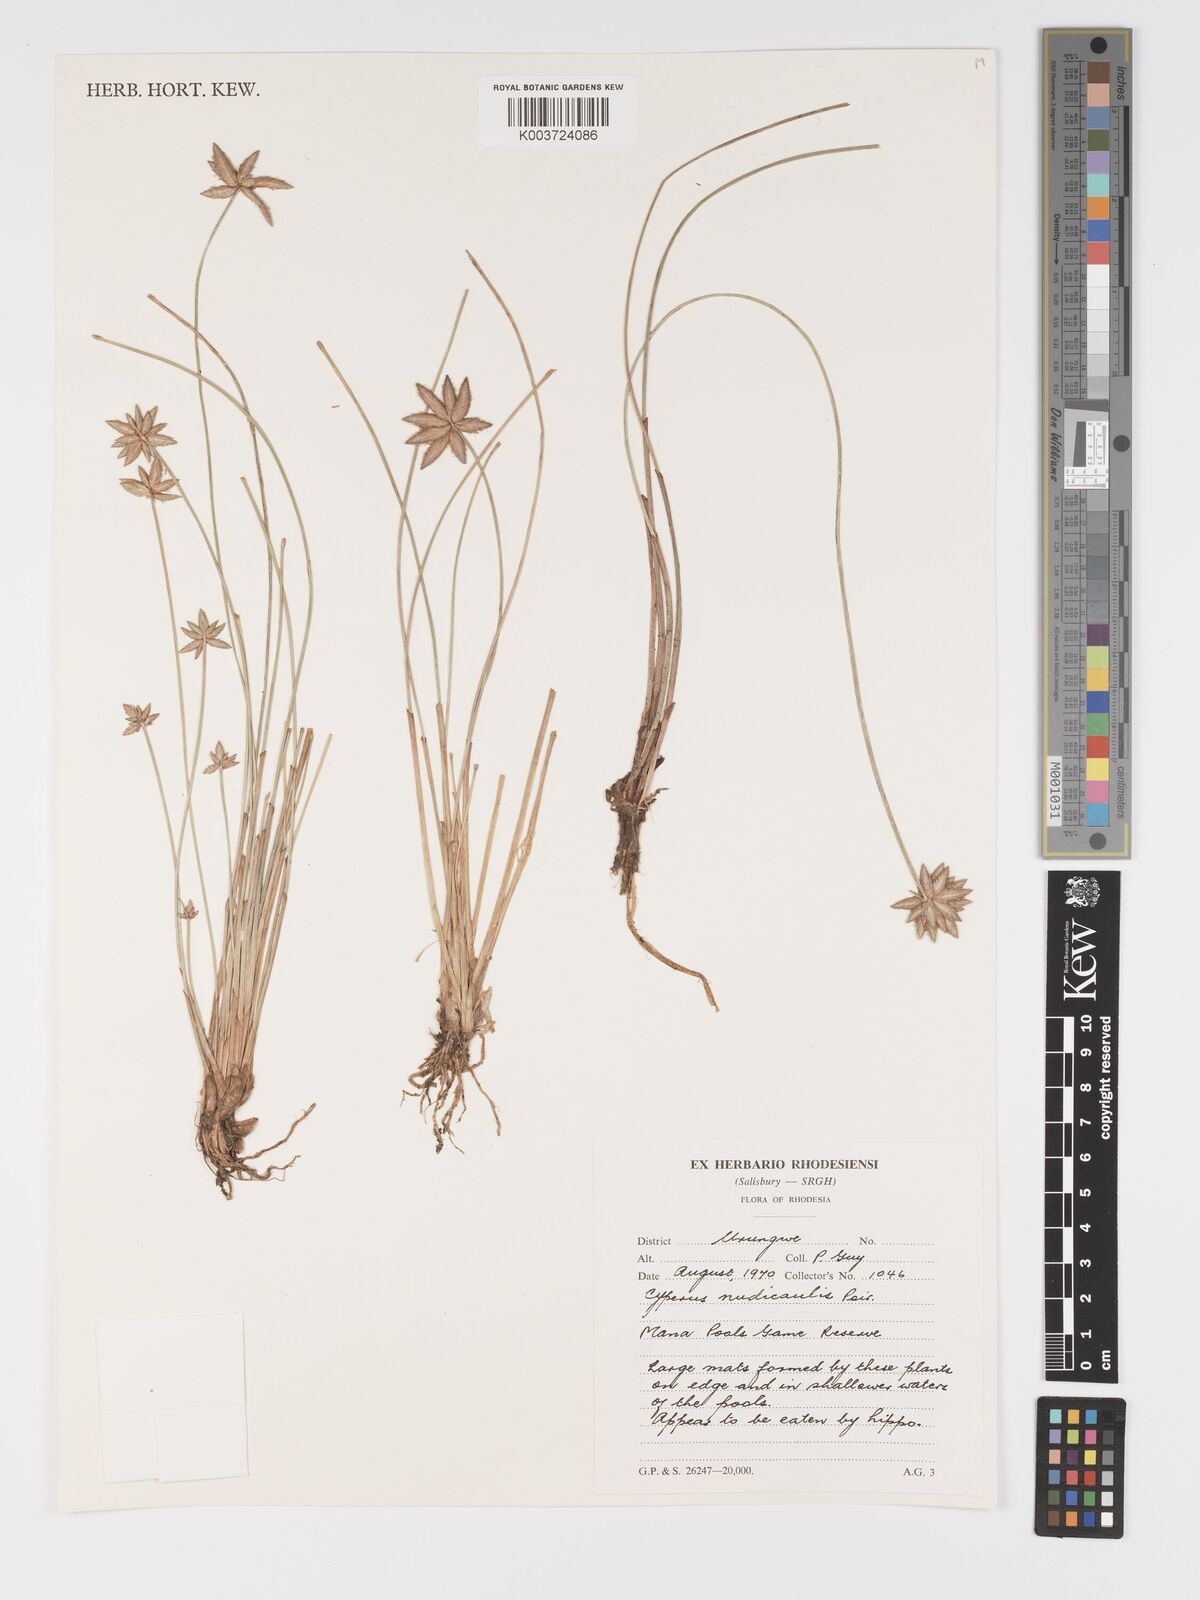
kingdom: Plantae
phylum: Tracheophyta
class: Liliopsida
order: Poales
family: Cyperaceae
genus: Cyperus
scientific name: Cyperus compressus
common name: Poorland flatsedge
